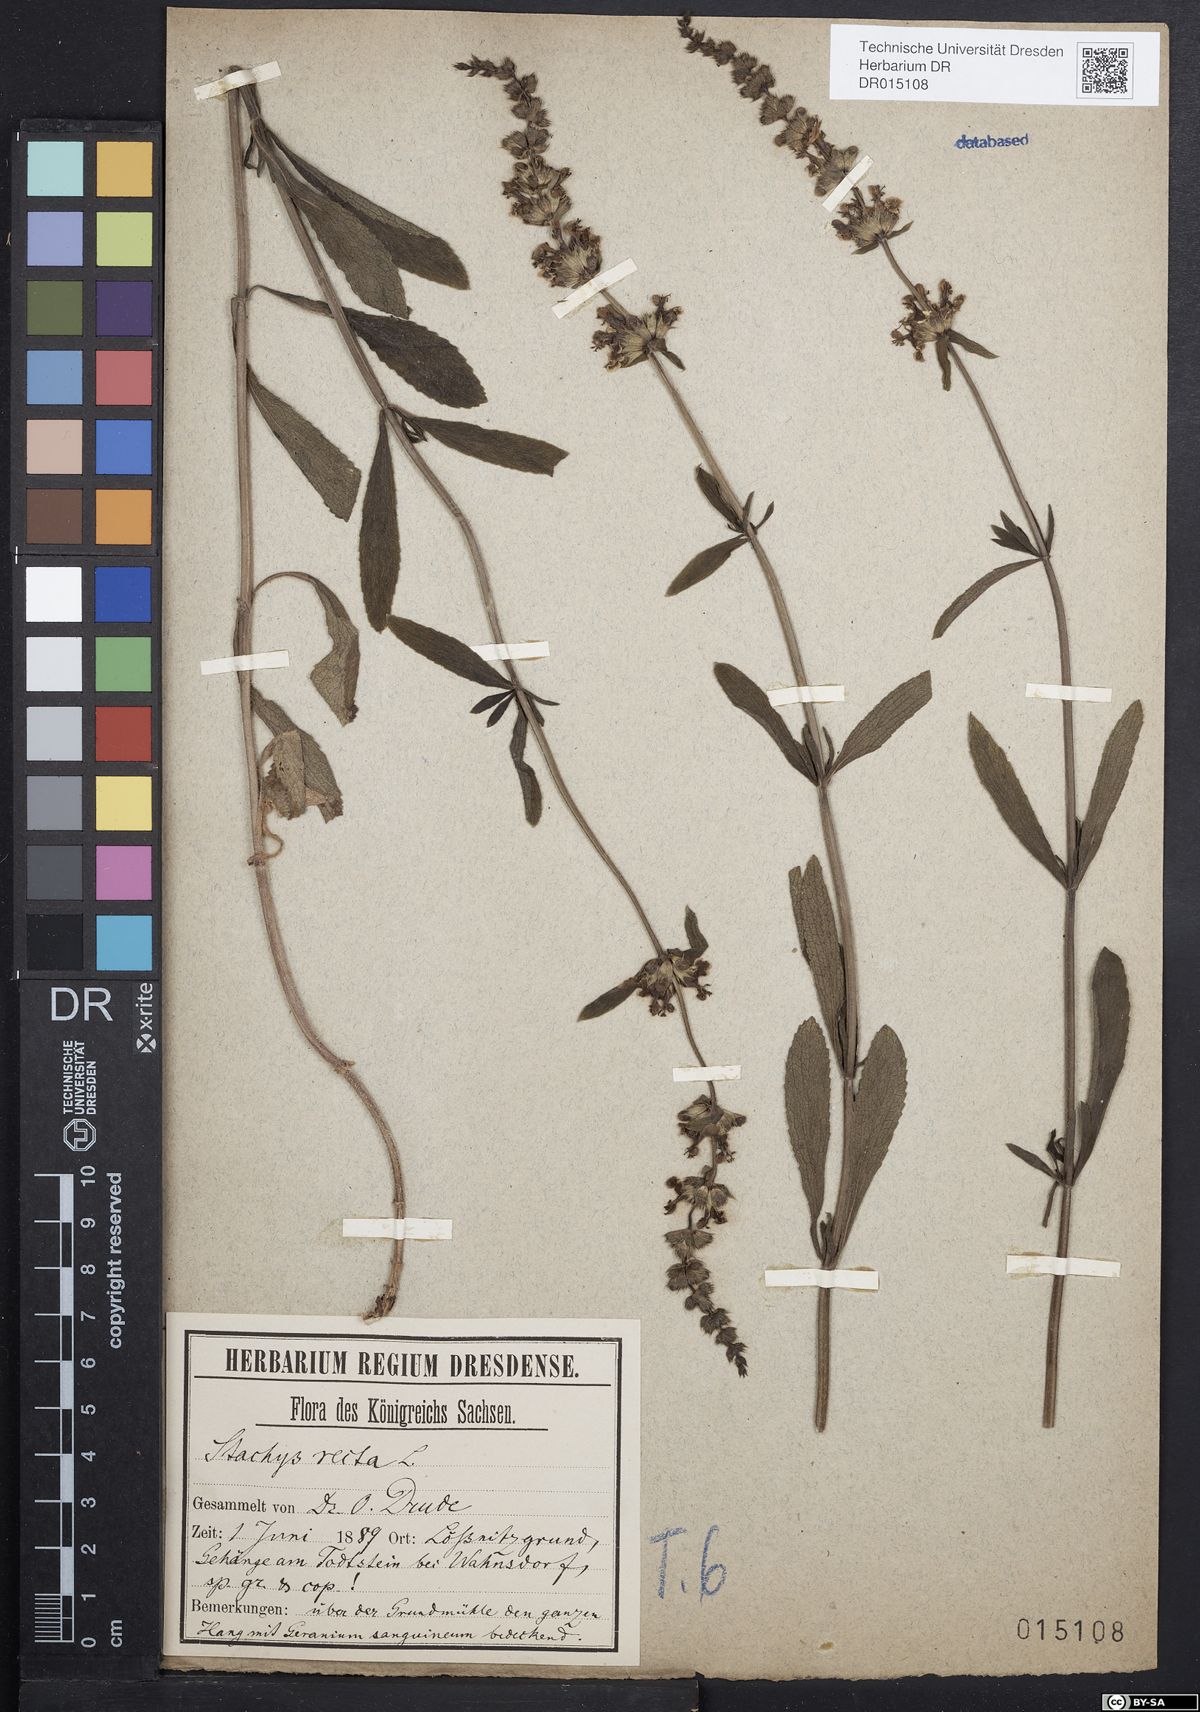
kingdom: Plantae
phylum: Tracheophyta
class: Magnoliopsida
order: Lamiales
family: Lamiaceae
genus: Stachys
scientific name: Stachys recta
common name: Perennial yellow-woundwort
